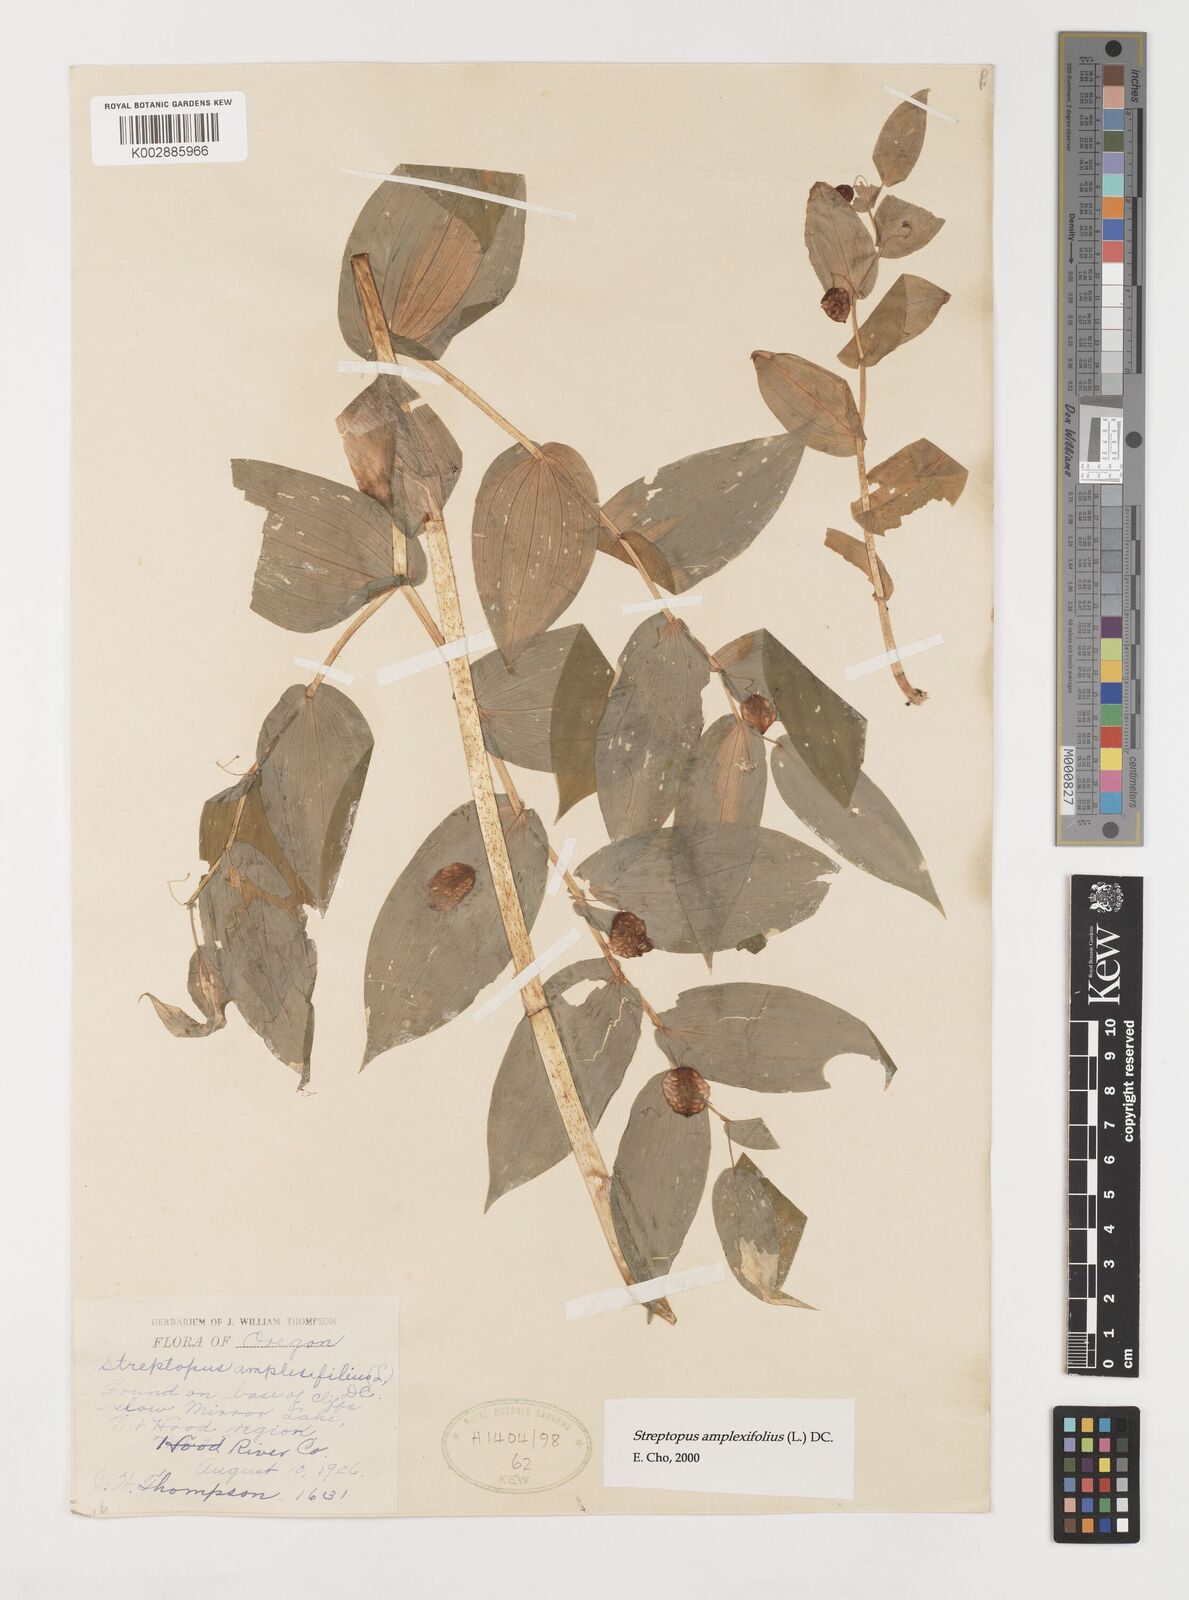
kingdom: Plantae
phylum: Tracheophyta
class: Liliopsida
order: Liliales
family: Liliaceae
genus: Streptopus
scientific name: Streptopus amplexifolius
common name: Clasp twisted stalk
